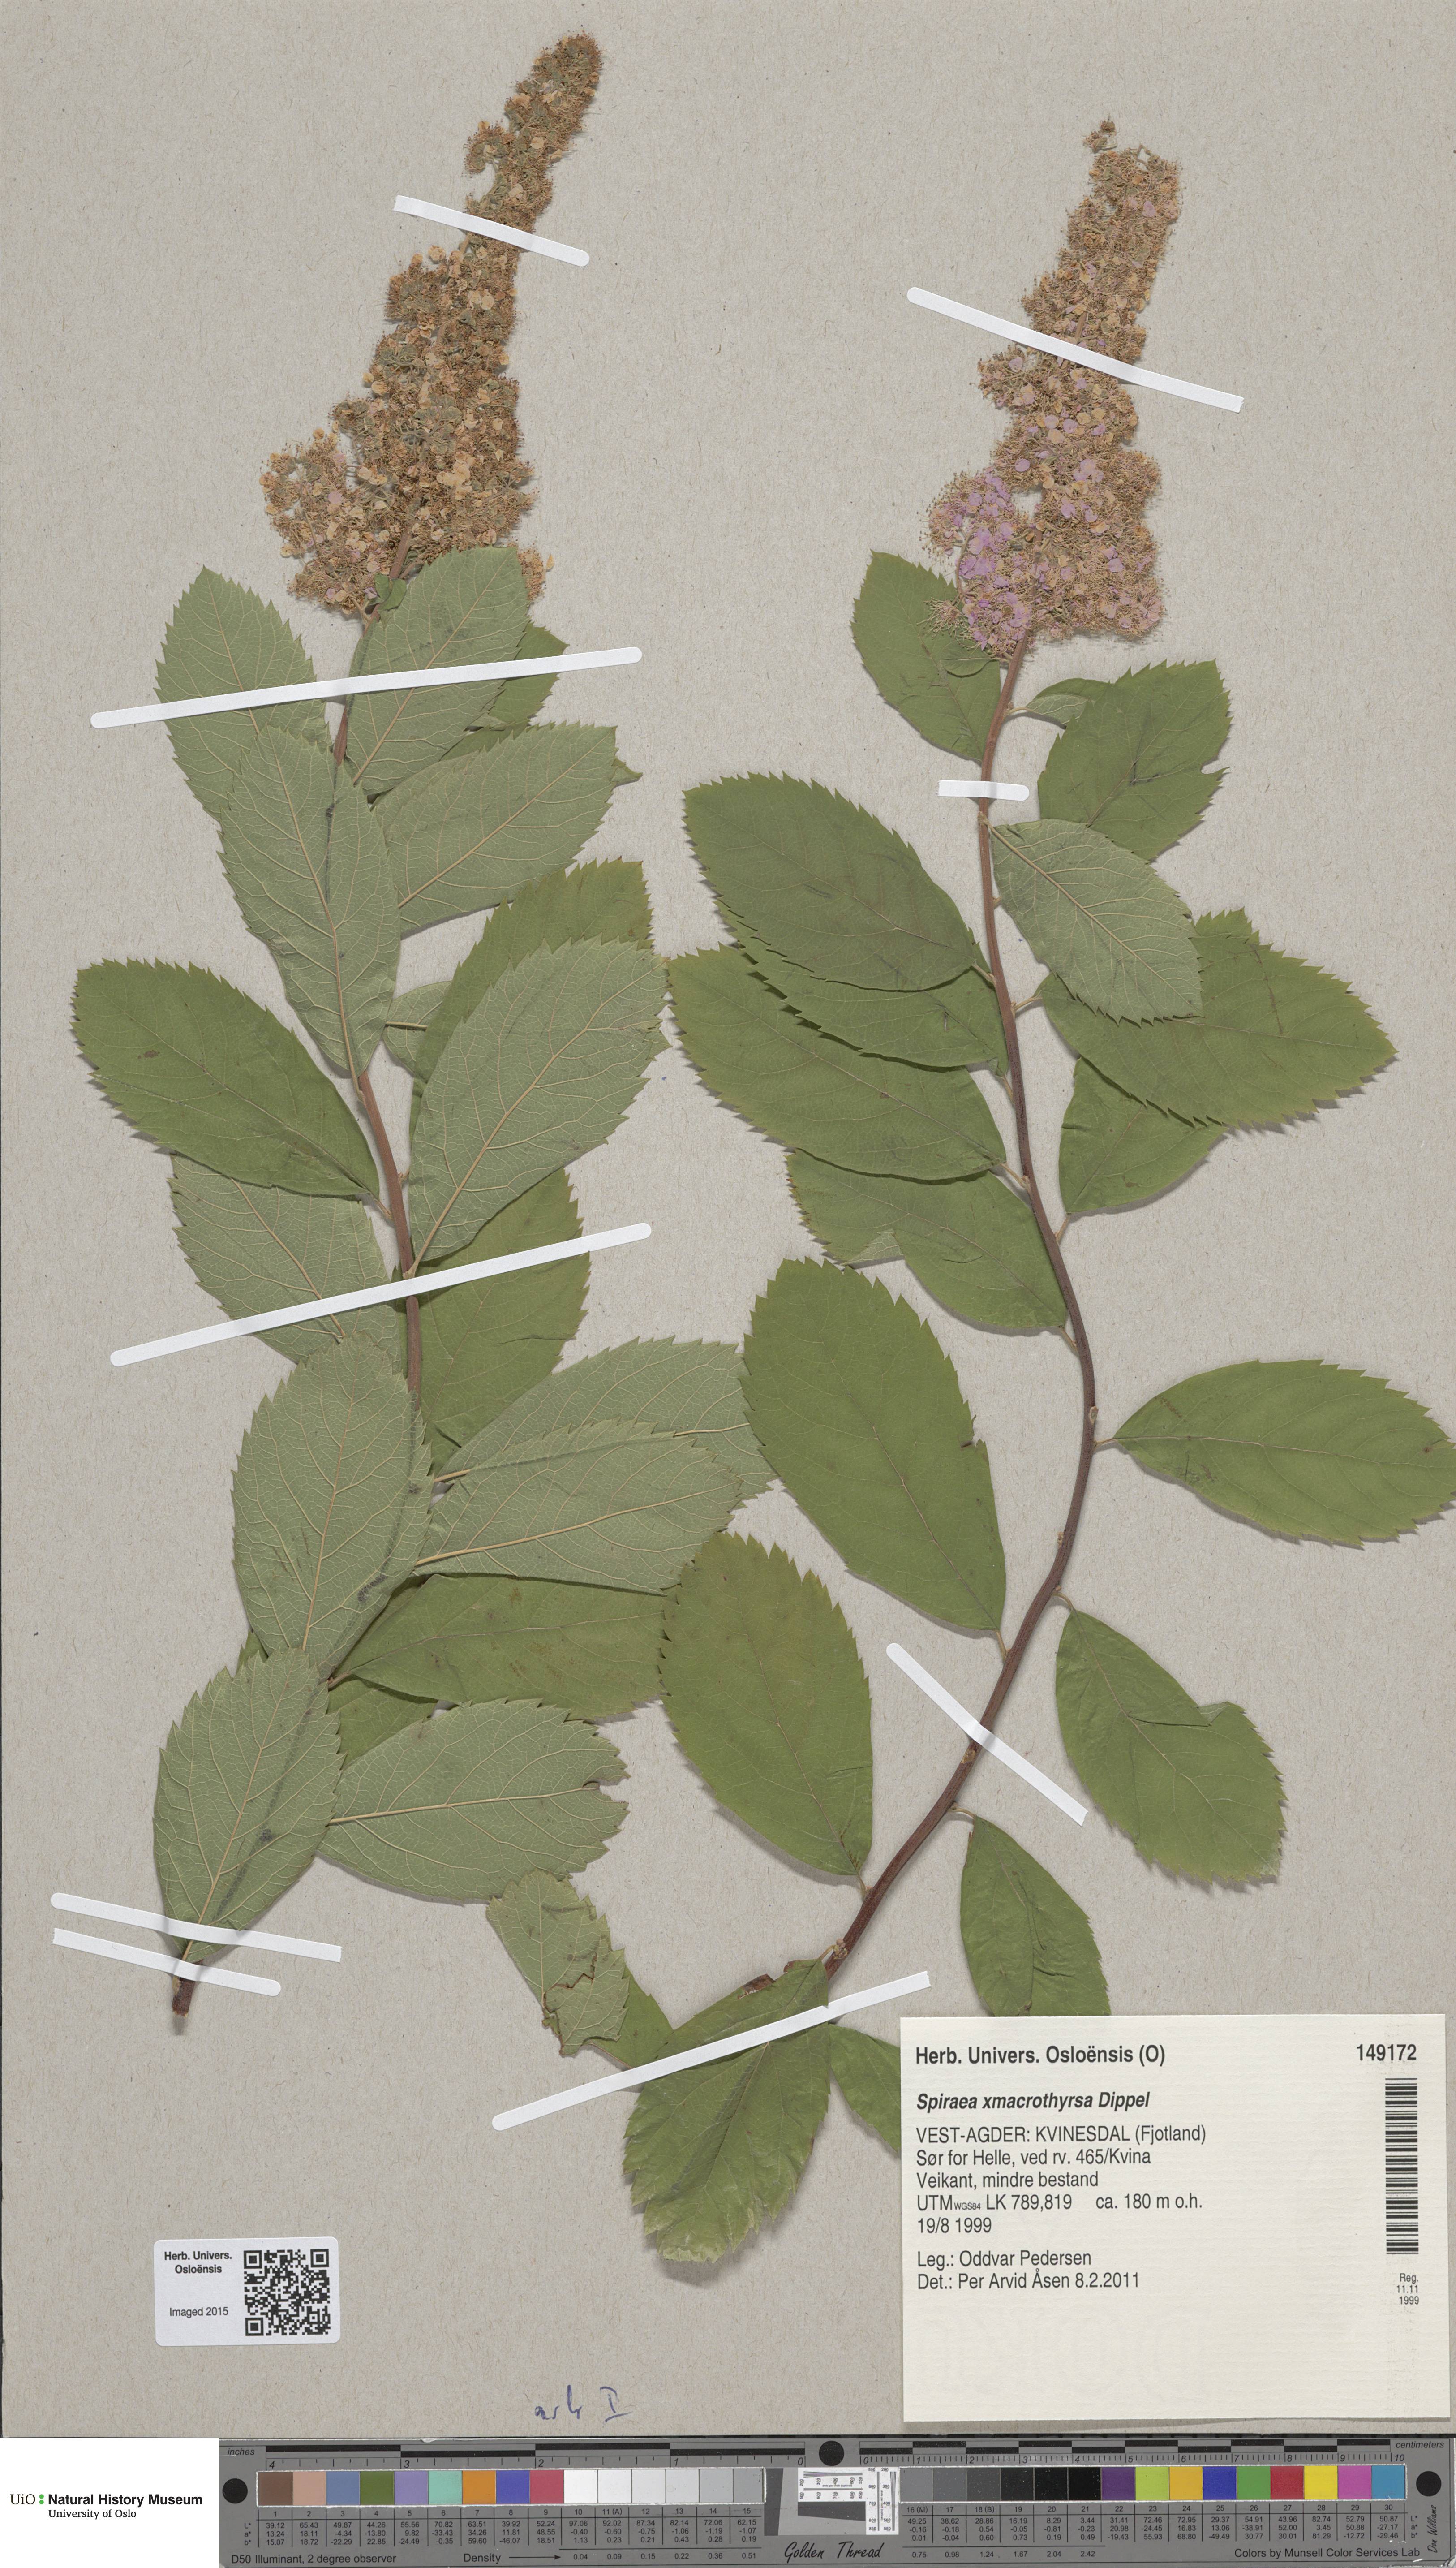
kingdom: Plantae
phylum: Tracheophyta
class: Magnoliopsida
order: Rosales
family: Rosaceae
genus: Spiraea
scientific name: Spiraea macrothyrsa
